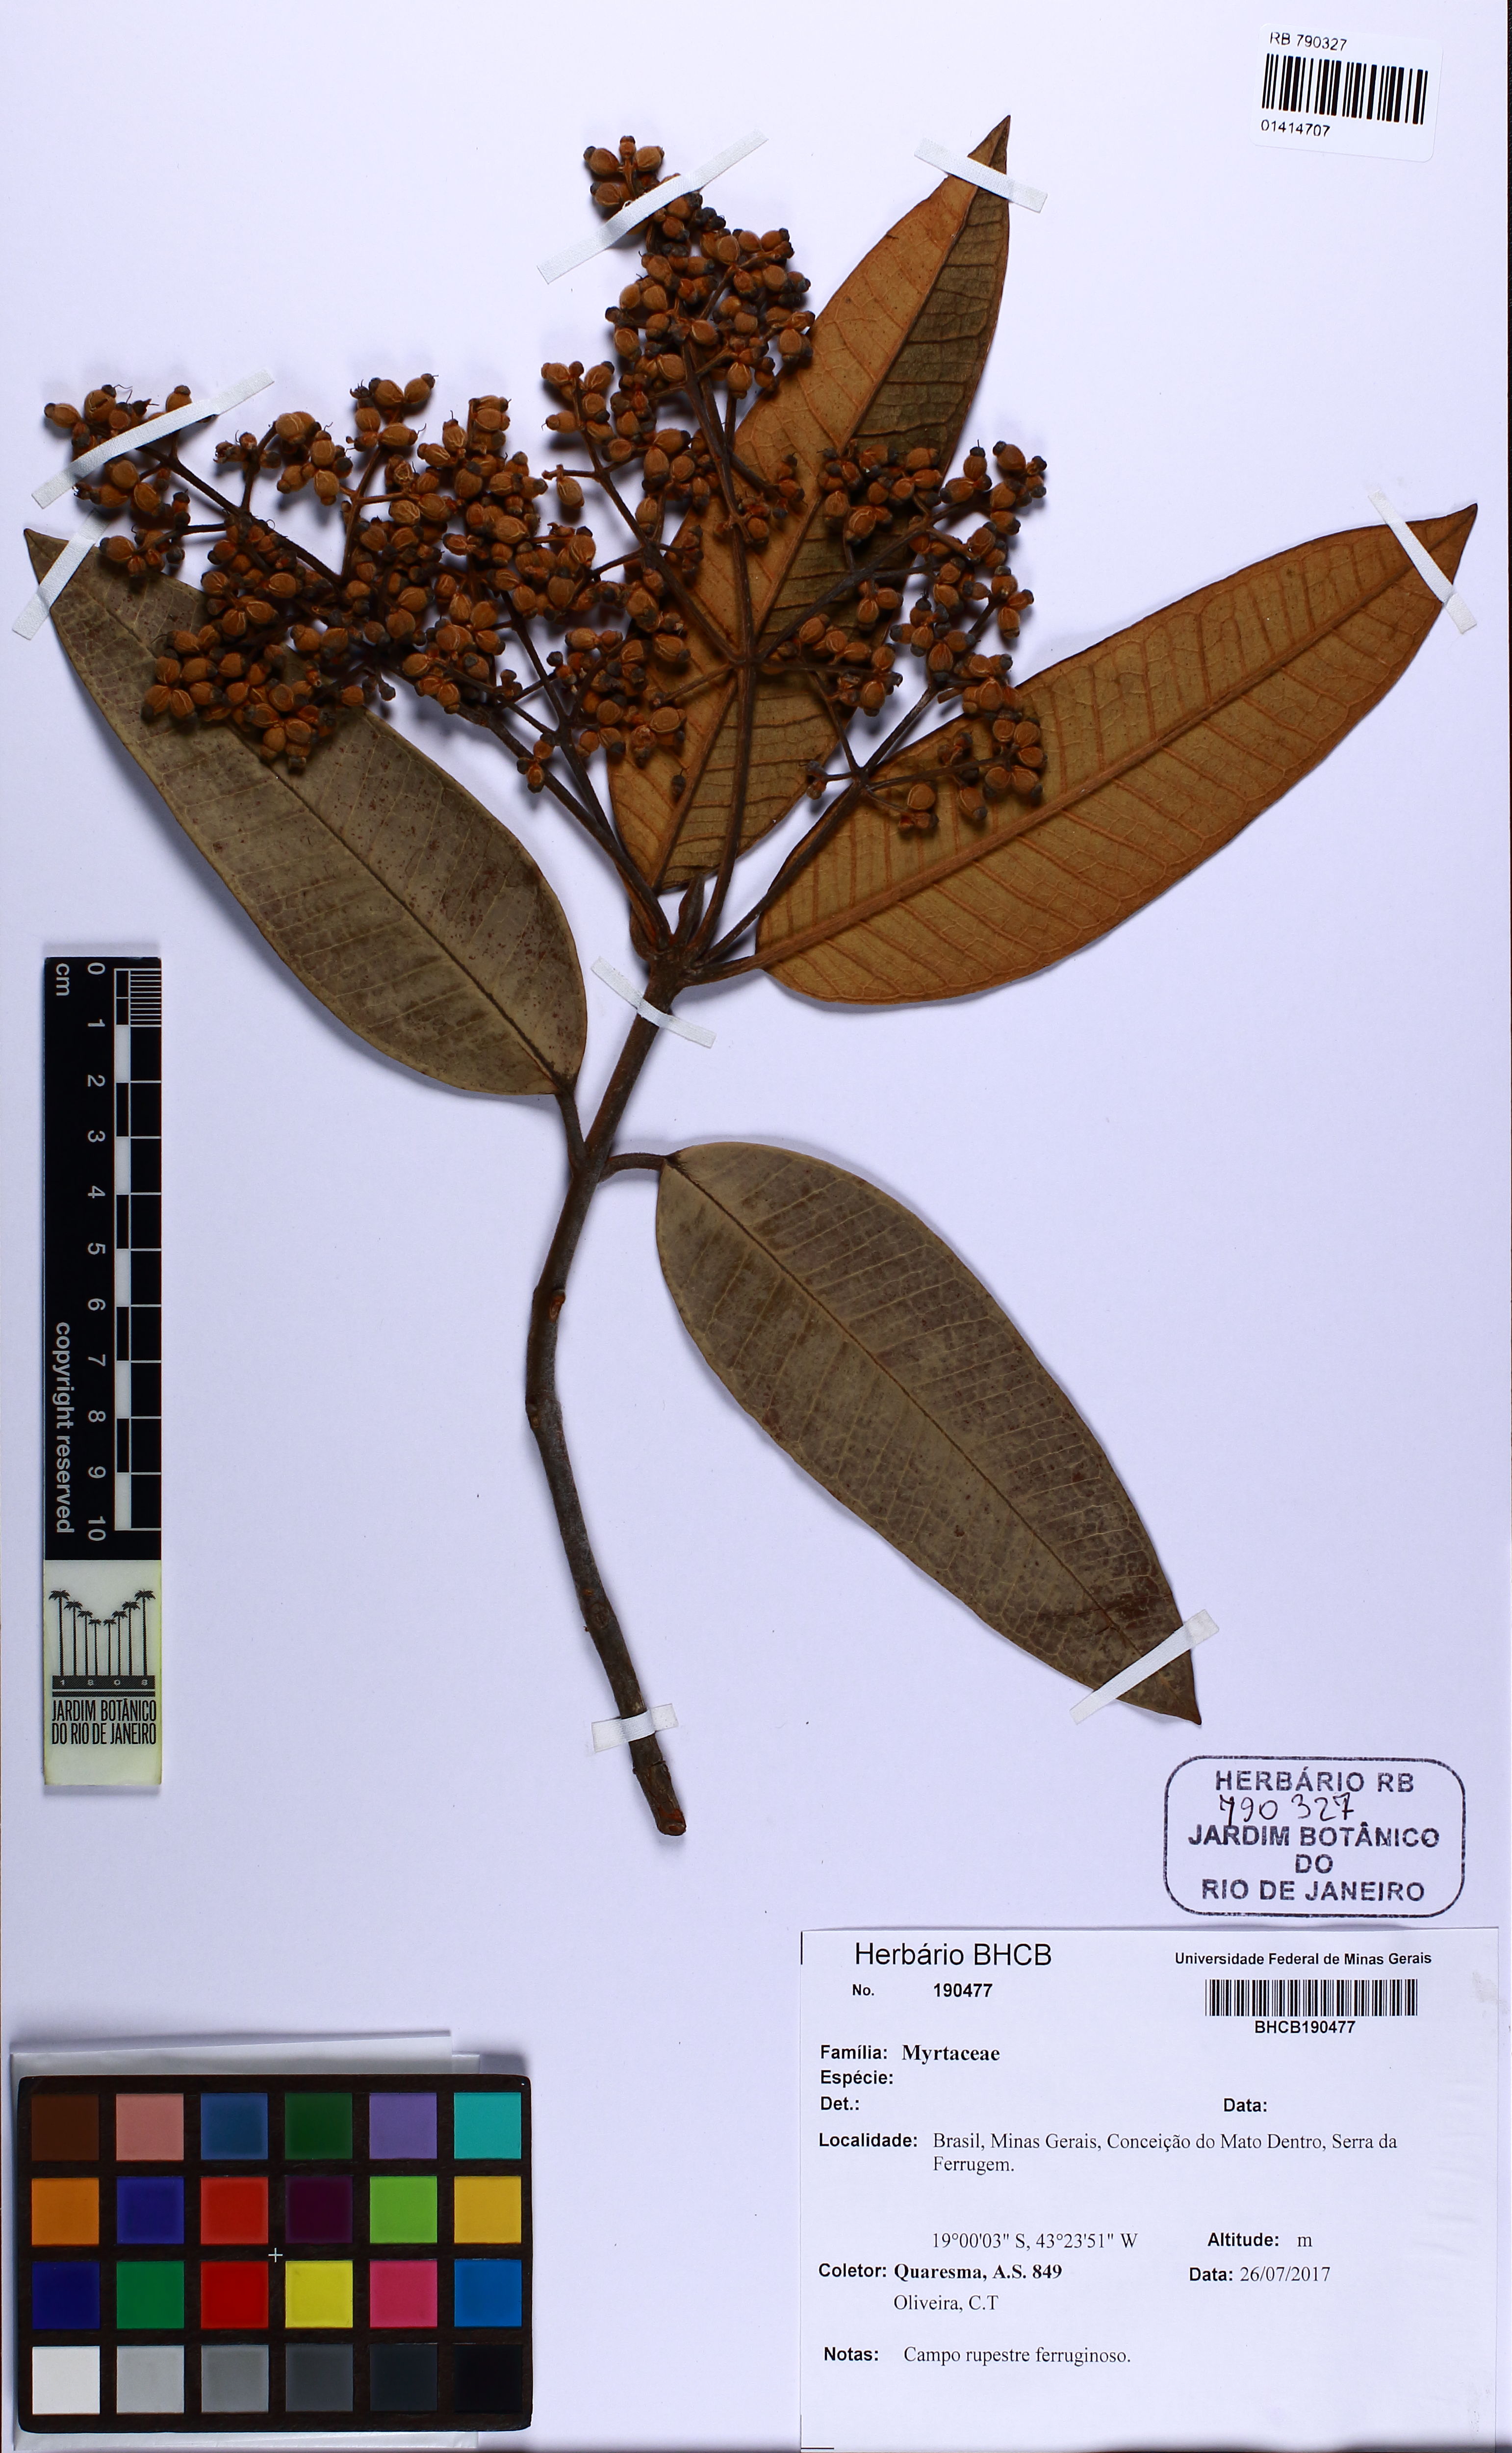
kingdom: Plantae
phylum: Tracheophyta
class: Magnoliopsida
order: Myrtales
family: Myrtaceae
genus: Myrcia
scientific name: Myrcia mischophylla
